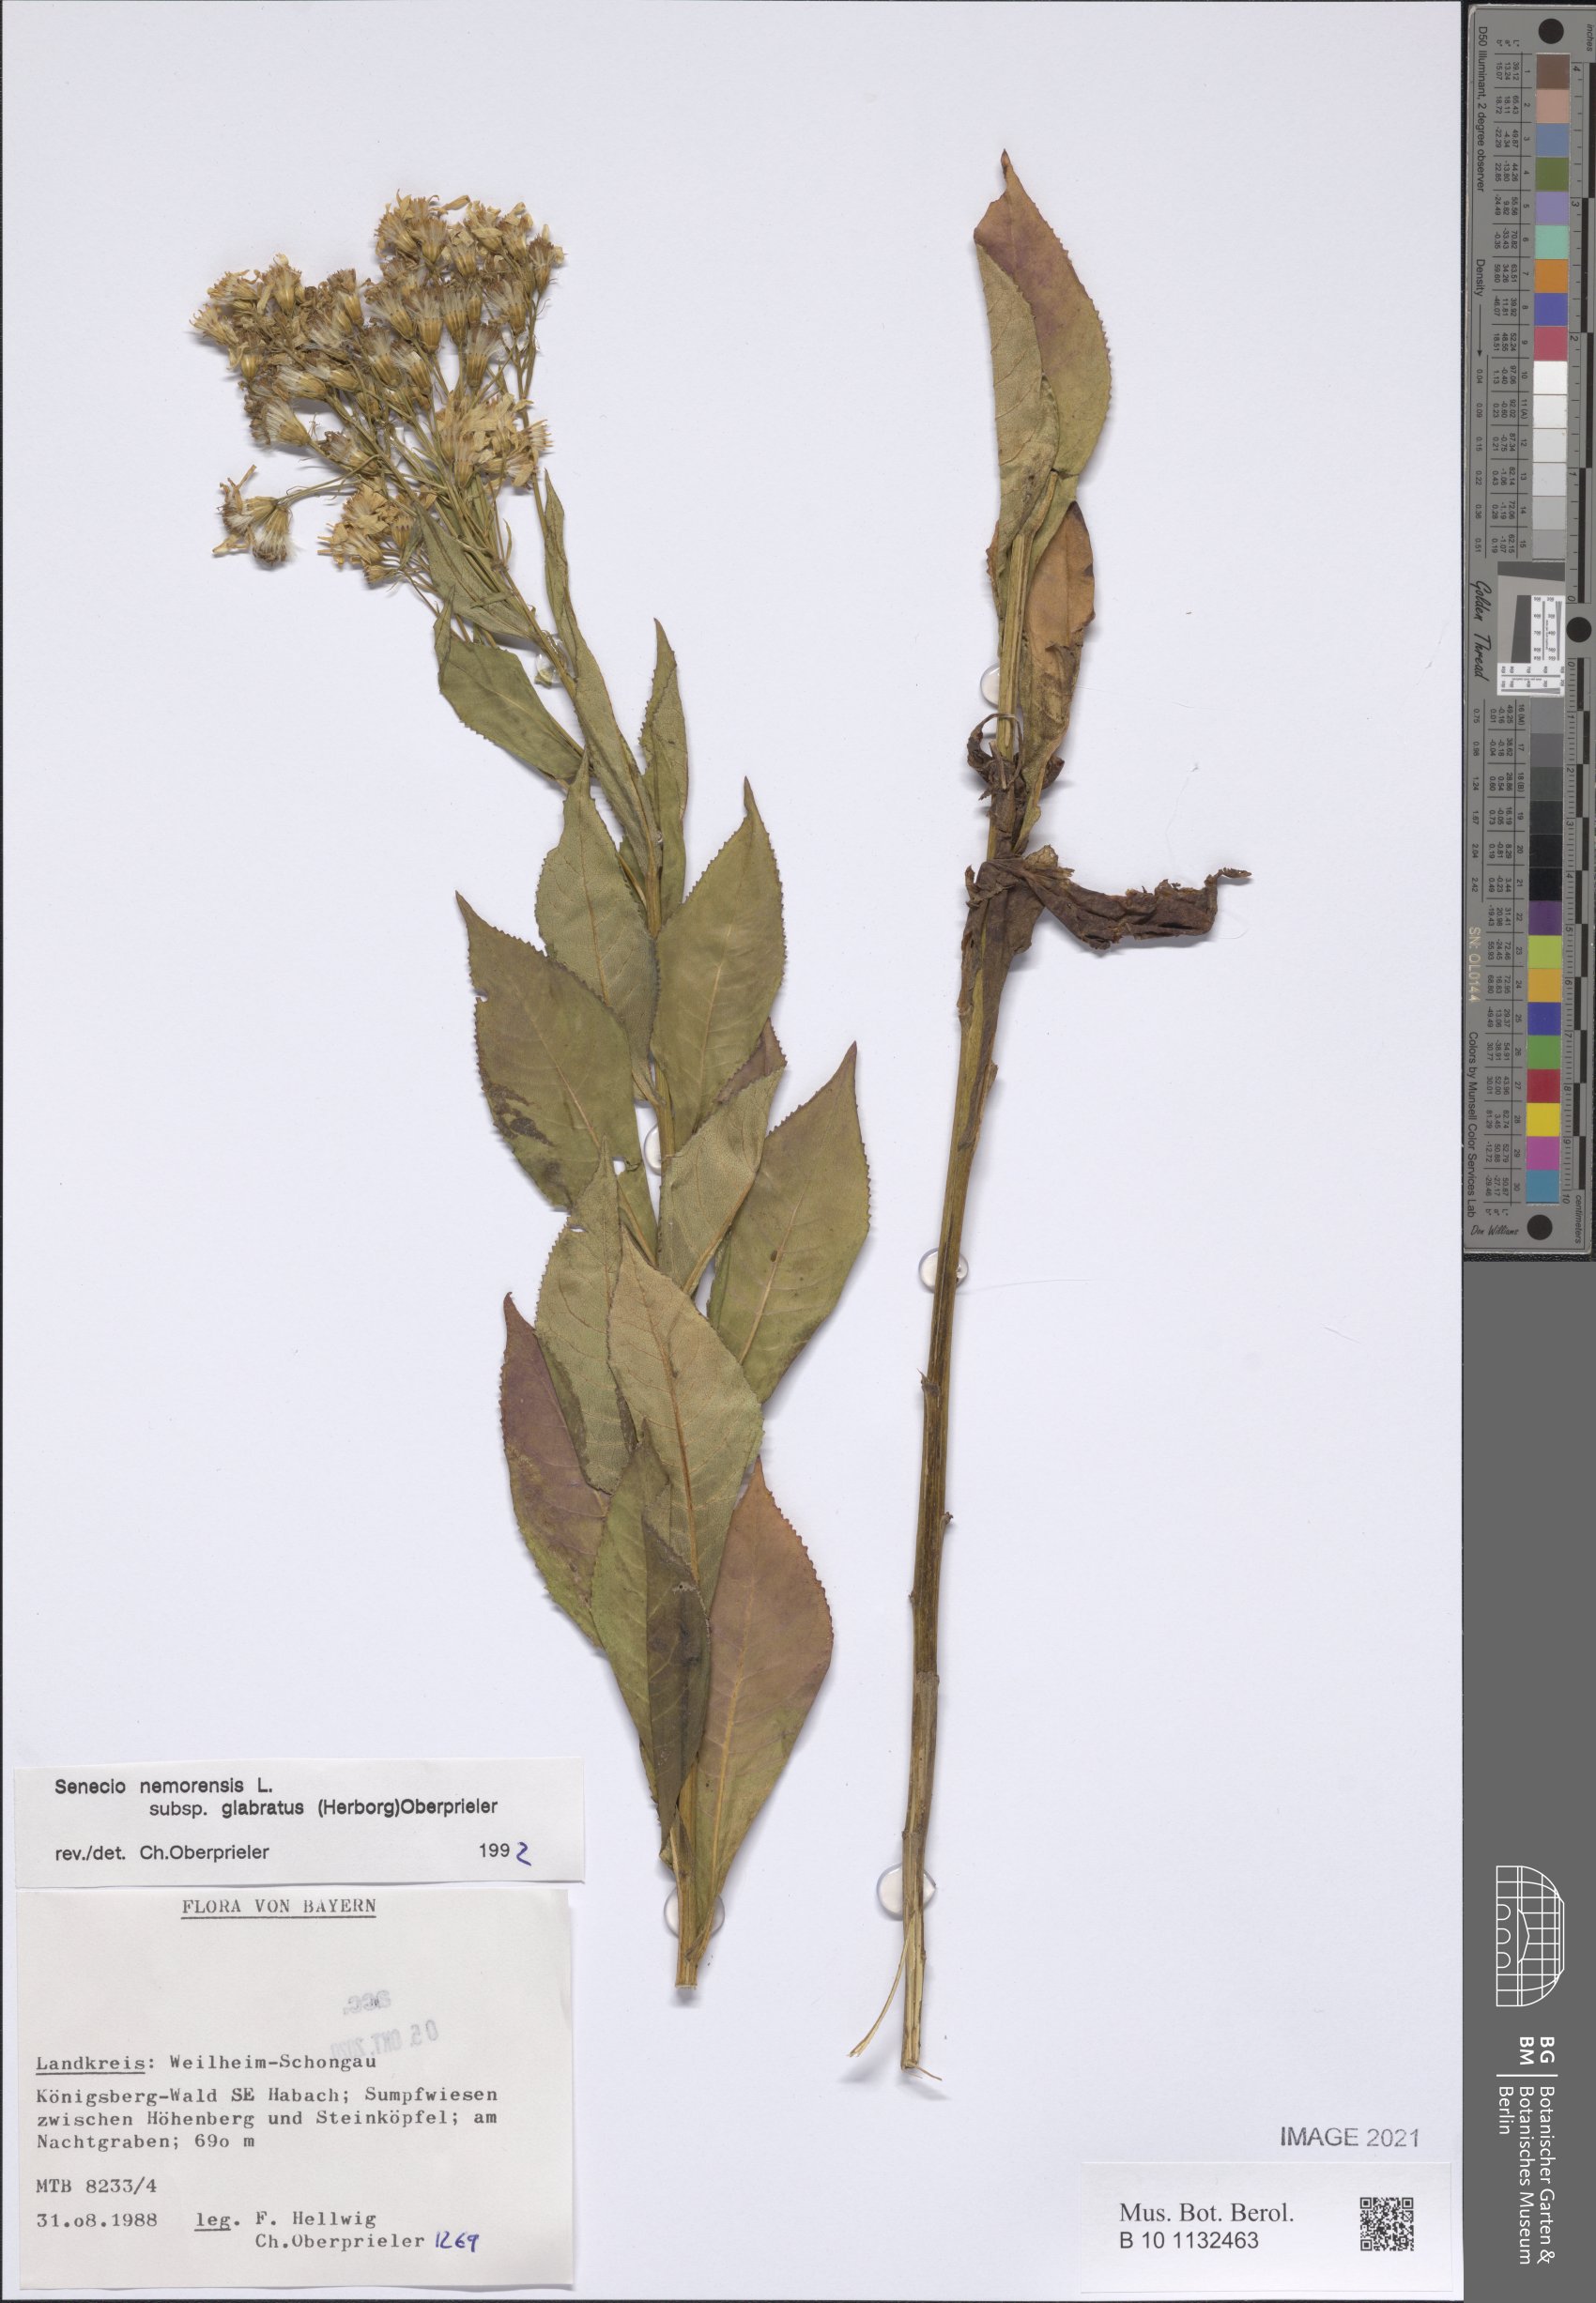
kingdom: Plantae
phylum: Tracheophyta
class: Magnoliopsida
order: Asterales
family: Asteraceae
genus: Senecio
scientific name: Senecio germanicus
